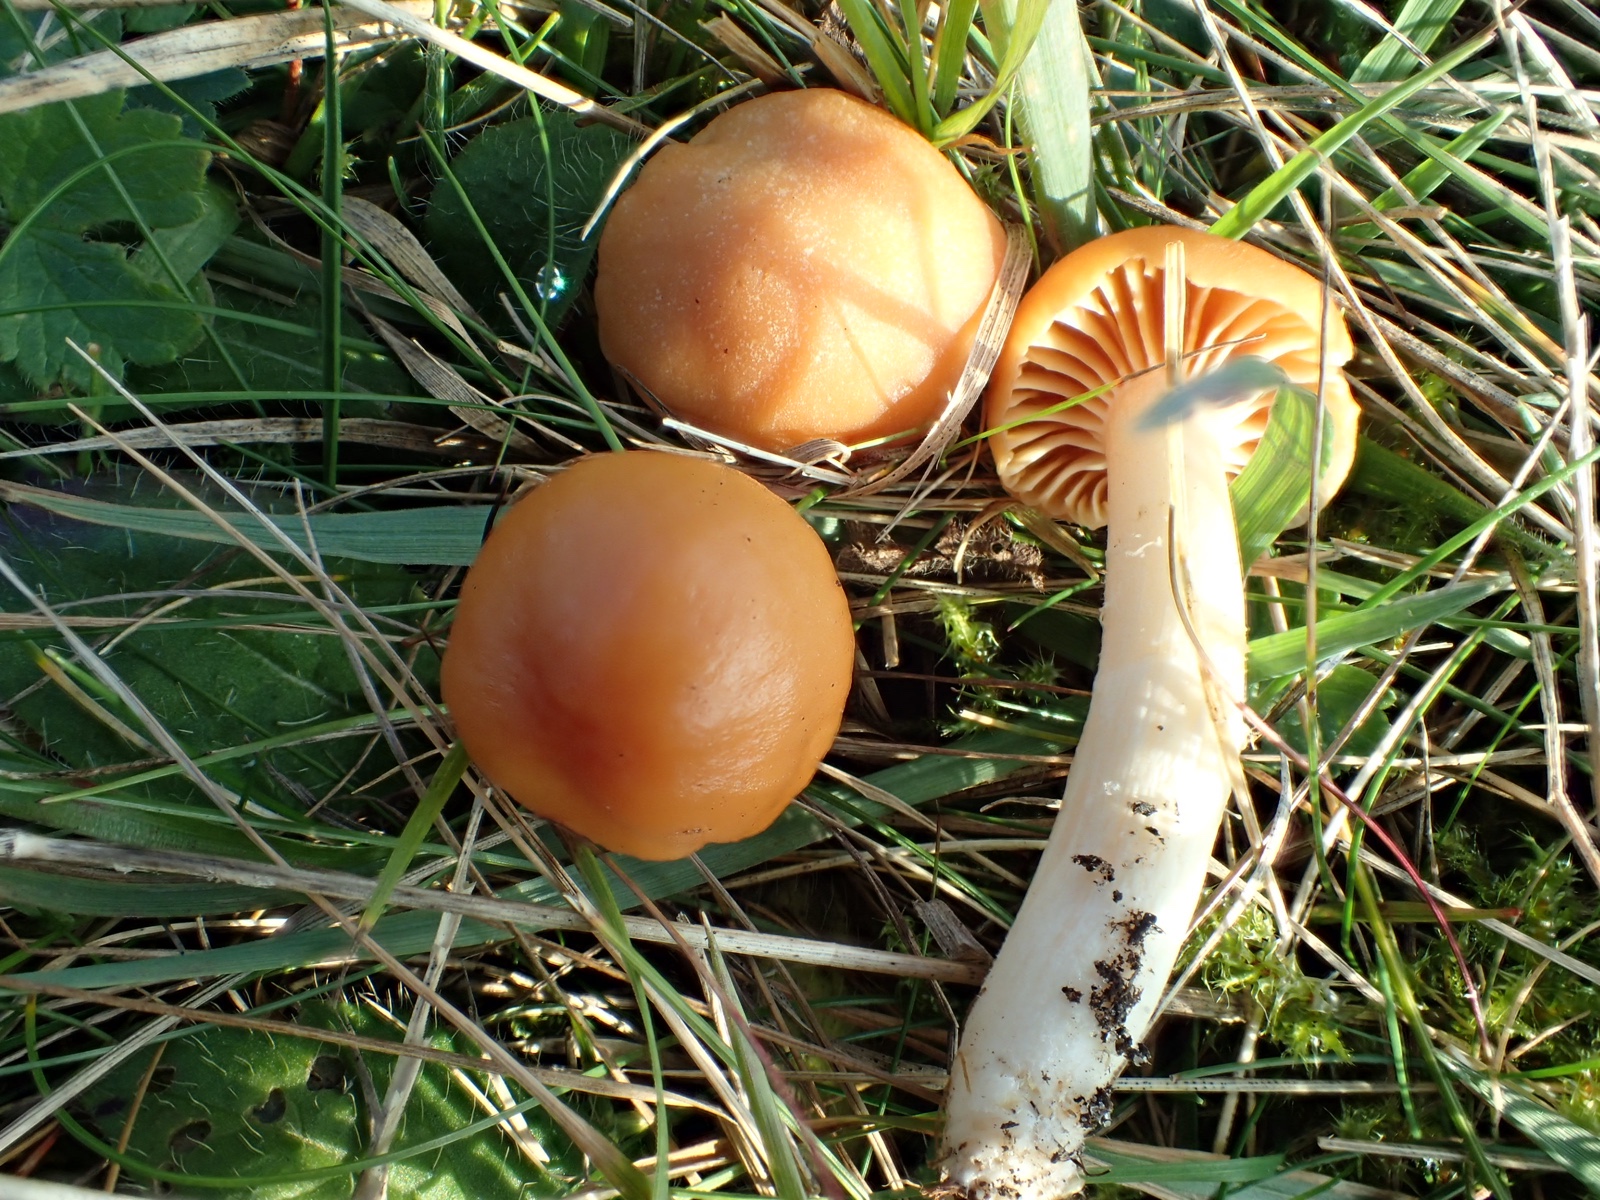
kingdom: Fungi
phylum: Basidiomycota
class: Agaricomycetes
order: Agaricales
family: Hygrophoraceae
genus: Cuphophyllus
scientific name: Cuphophyllus pratensis
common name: eng-vokshat
